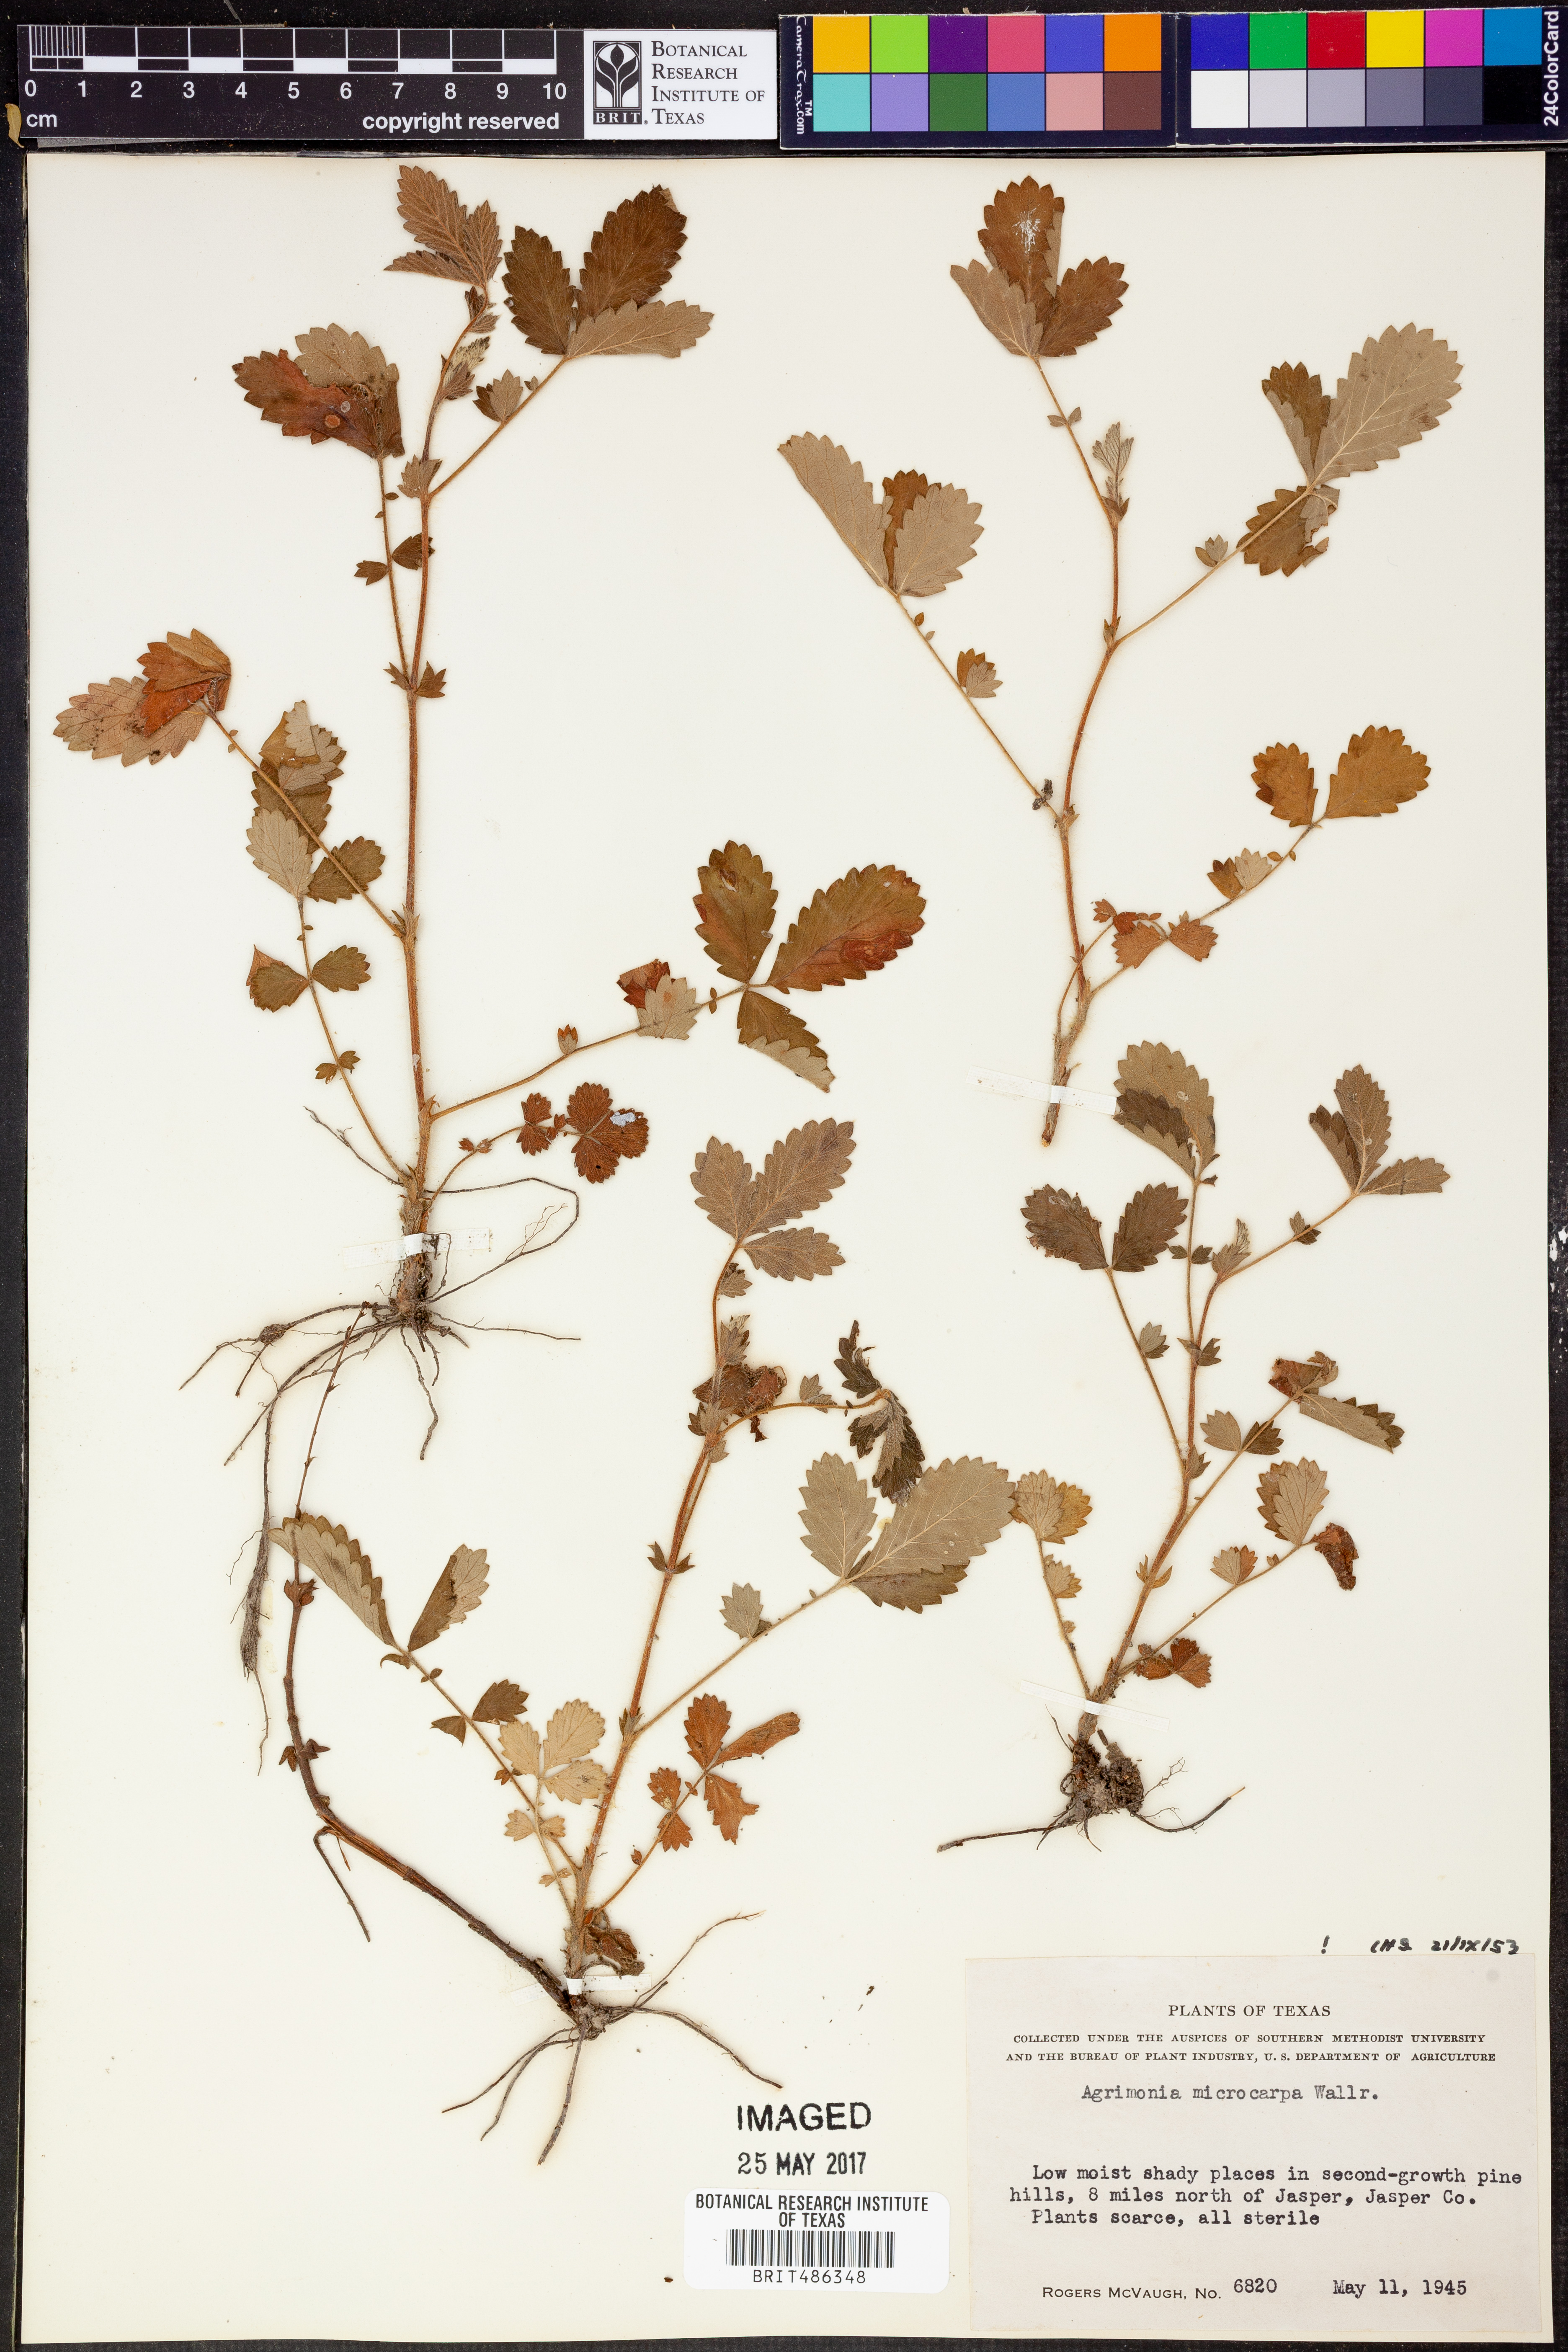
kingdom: Plantae
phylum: Tracheophyta
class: Magnoliopsida
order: Rosales
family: Rosaceae
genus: Agrimonia
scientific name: Agrimonia microcarpa
